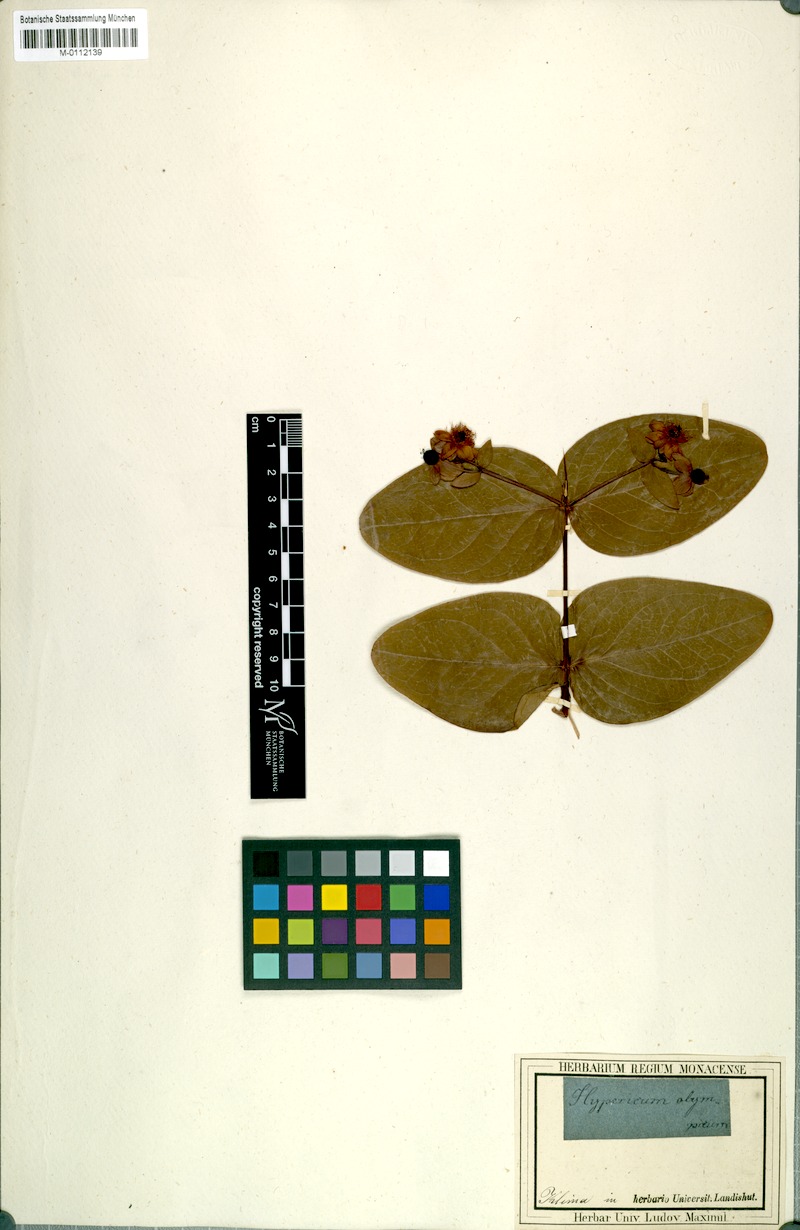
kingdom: Plantae
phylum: Tracheophyta
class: Magnoliopsida
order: Malpighiales
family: Hypericaceae
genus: Hypericum
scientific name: Hypericum androsaemum
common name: Sweet-amber
